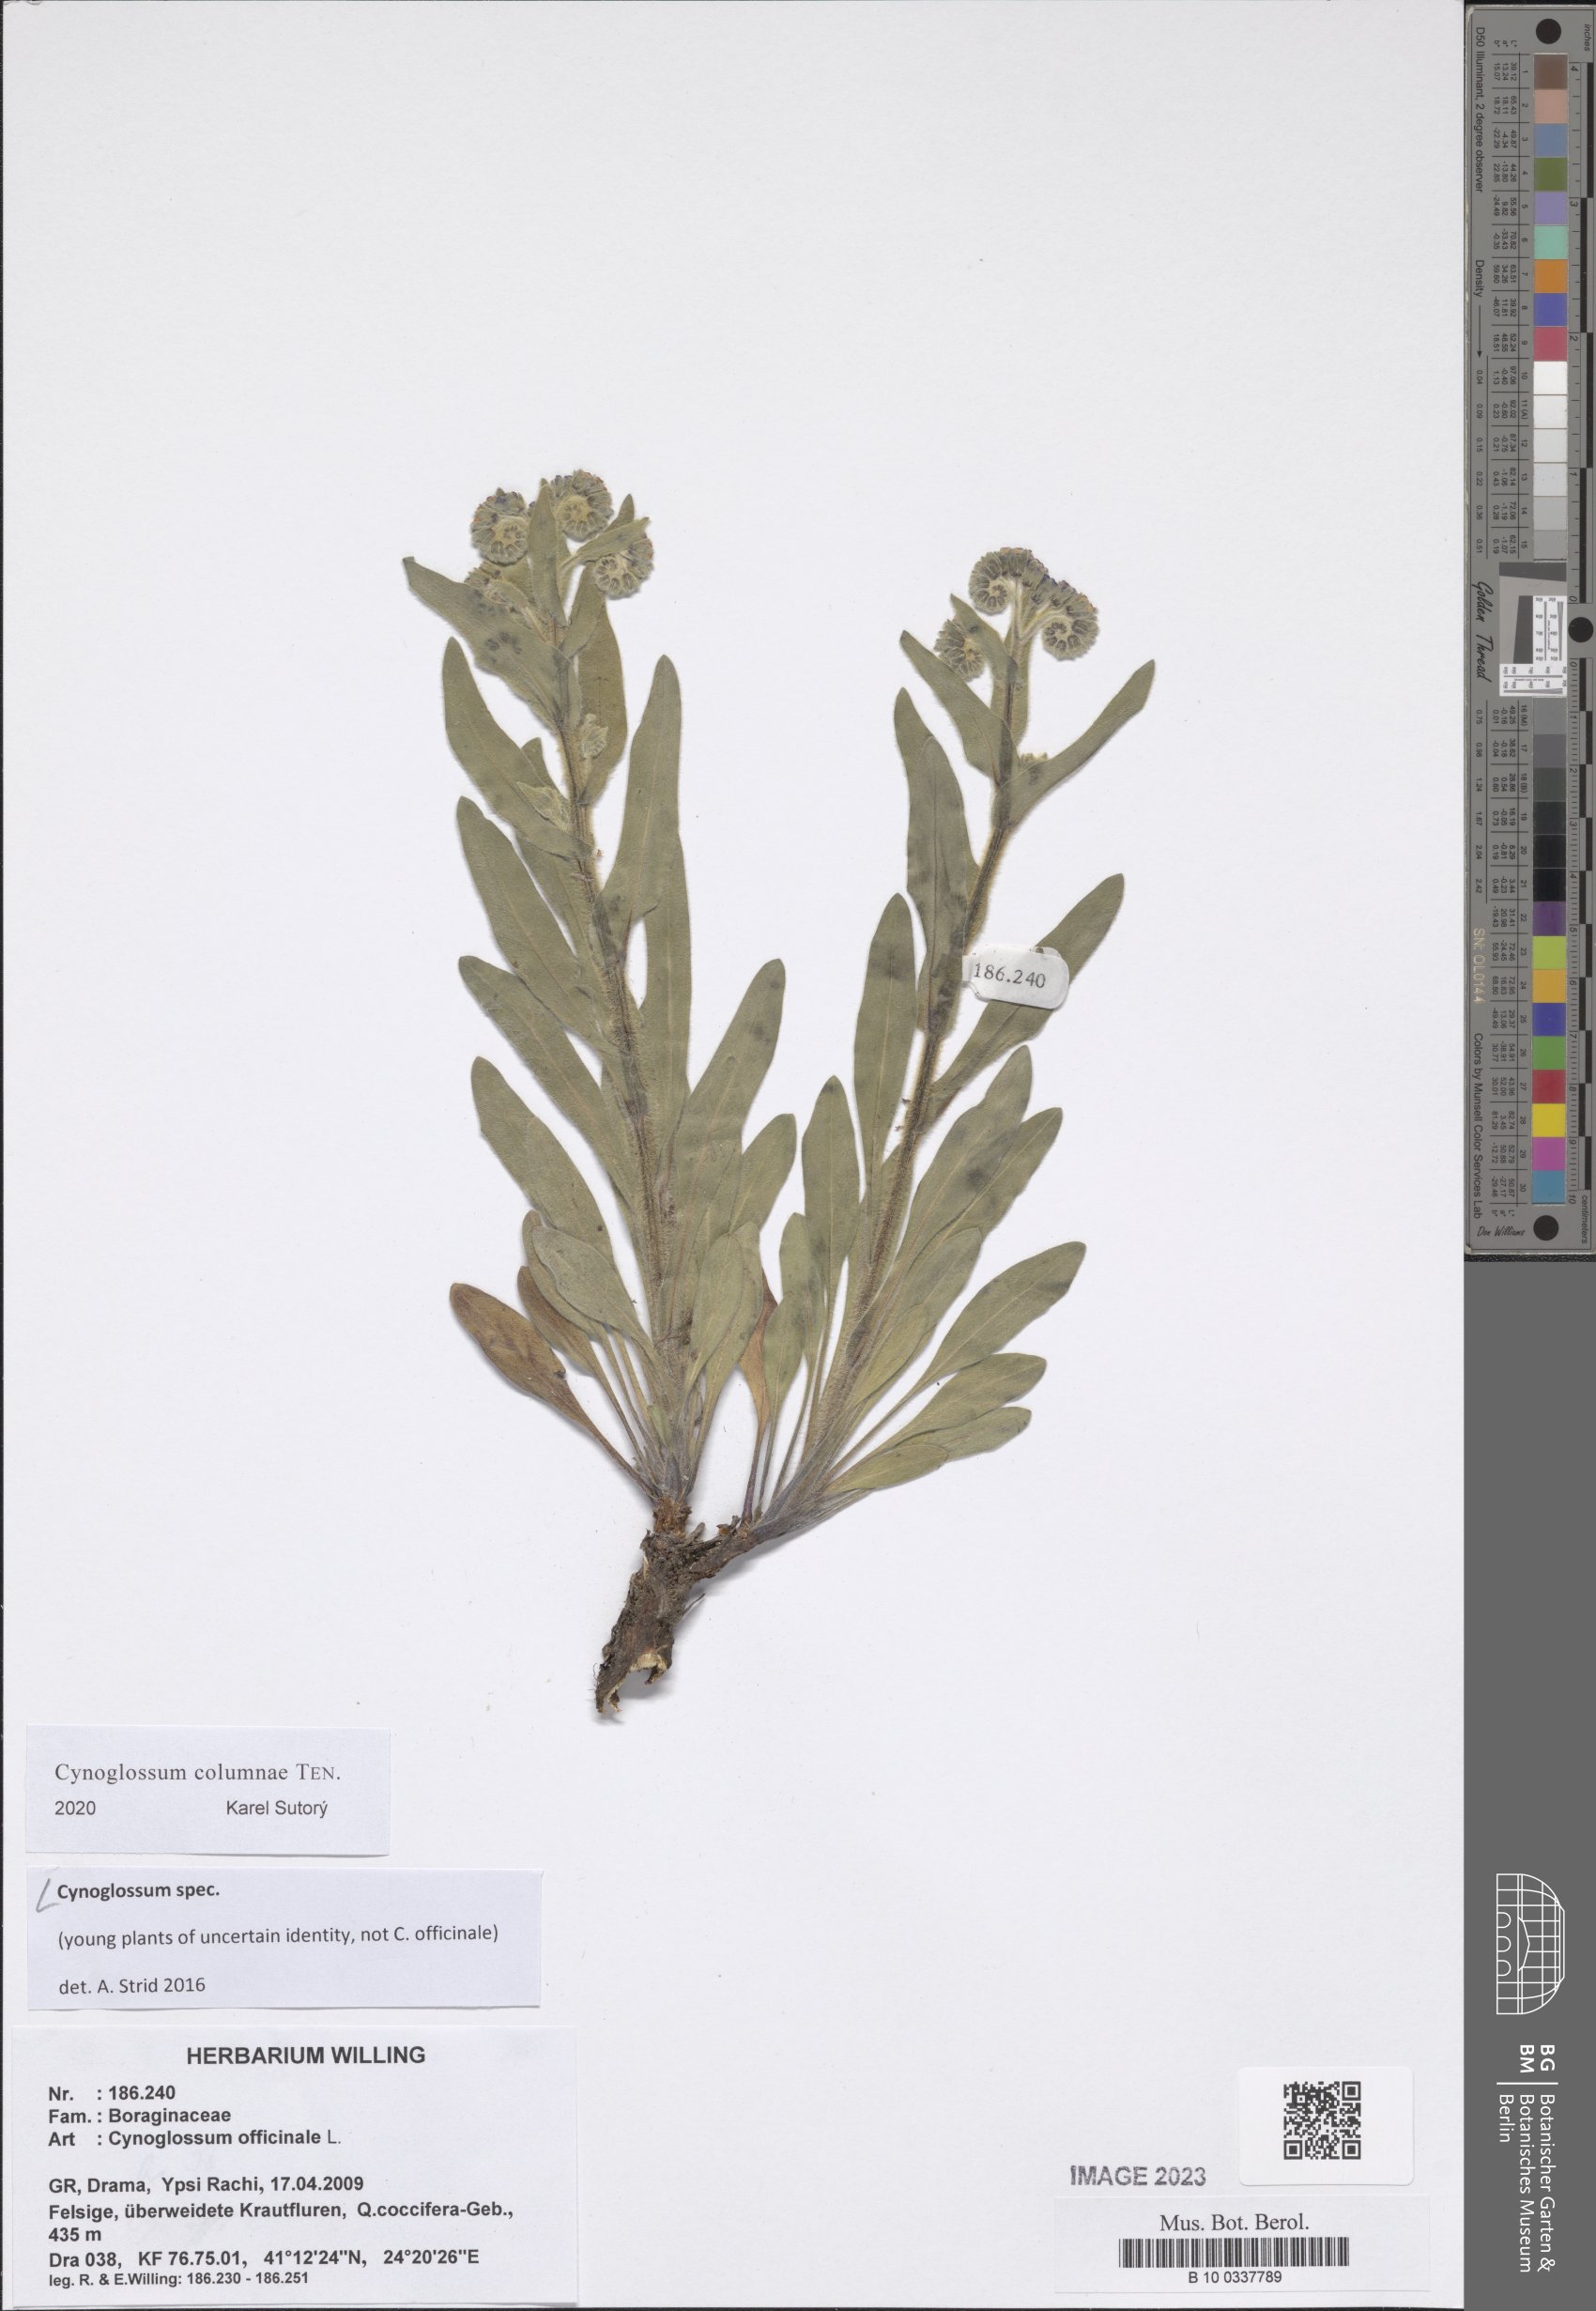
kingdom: Plantae
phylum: Tracheophyta
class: Magnoliopsida
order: Boraginales
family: Boraginaceae
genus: Cynoglossum
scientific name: Cynoglossum
